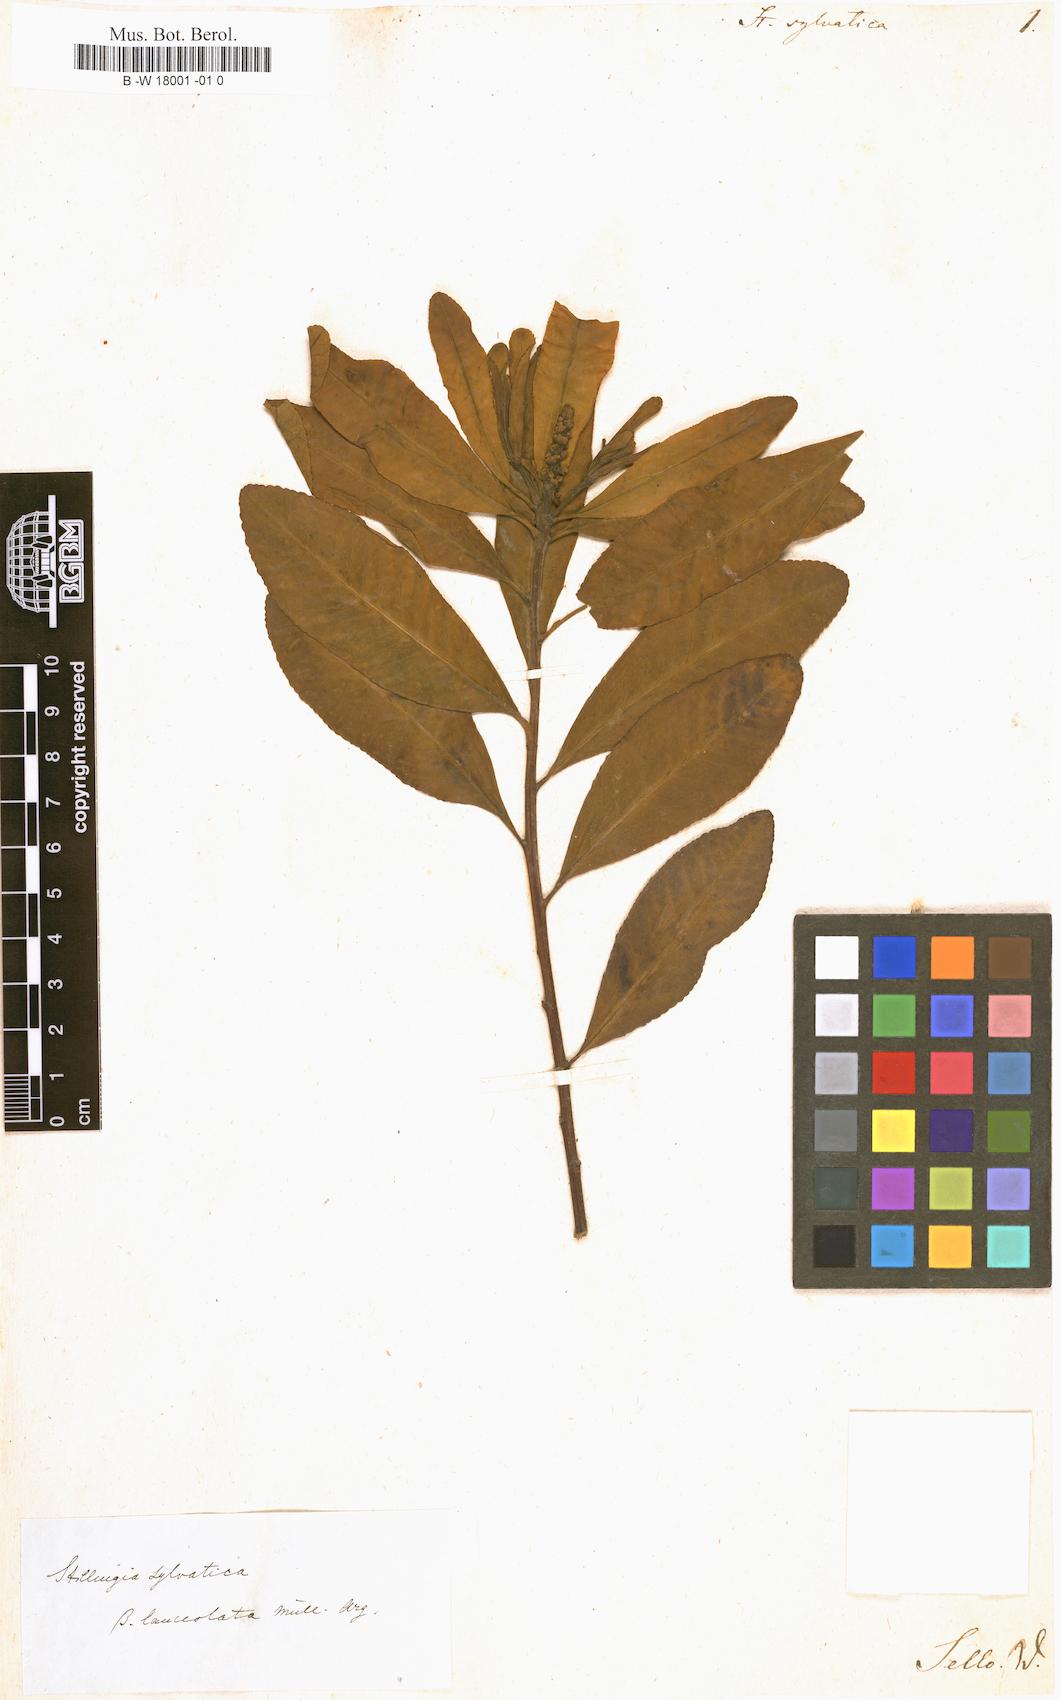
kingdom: Plantae
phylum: Tracheophyta
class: Magnoliopsida
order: Malpighiales
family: Euphorbiaceae
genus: Stillingia
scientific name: Stillingia sylvatica
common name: Queen's-delight
